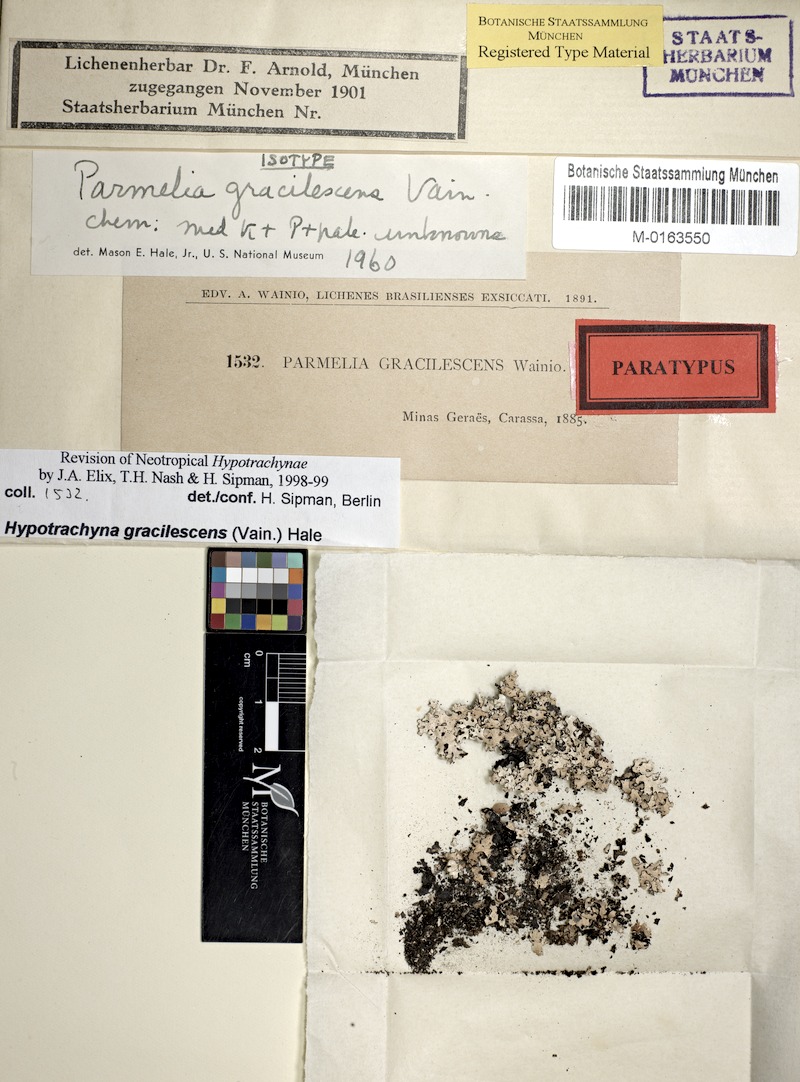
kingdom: Fungi
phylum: Ascomycota
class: Lecanoromycetes
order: Lecanorales
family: Parmeliaceae
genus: Hypotrachyna
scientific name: Hypotrachyna
